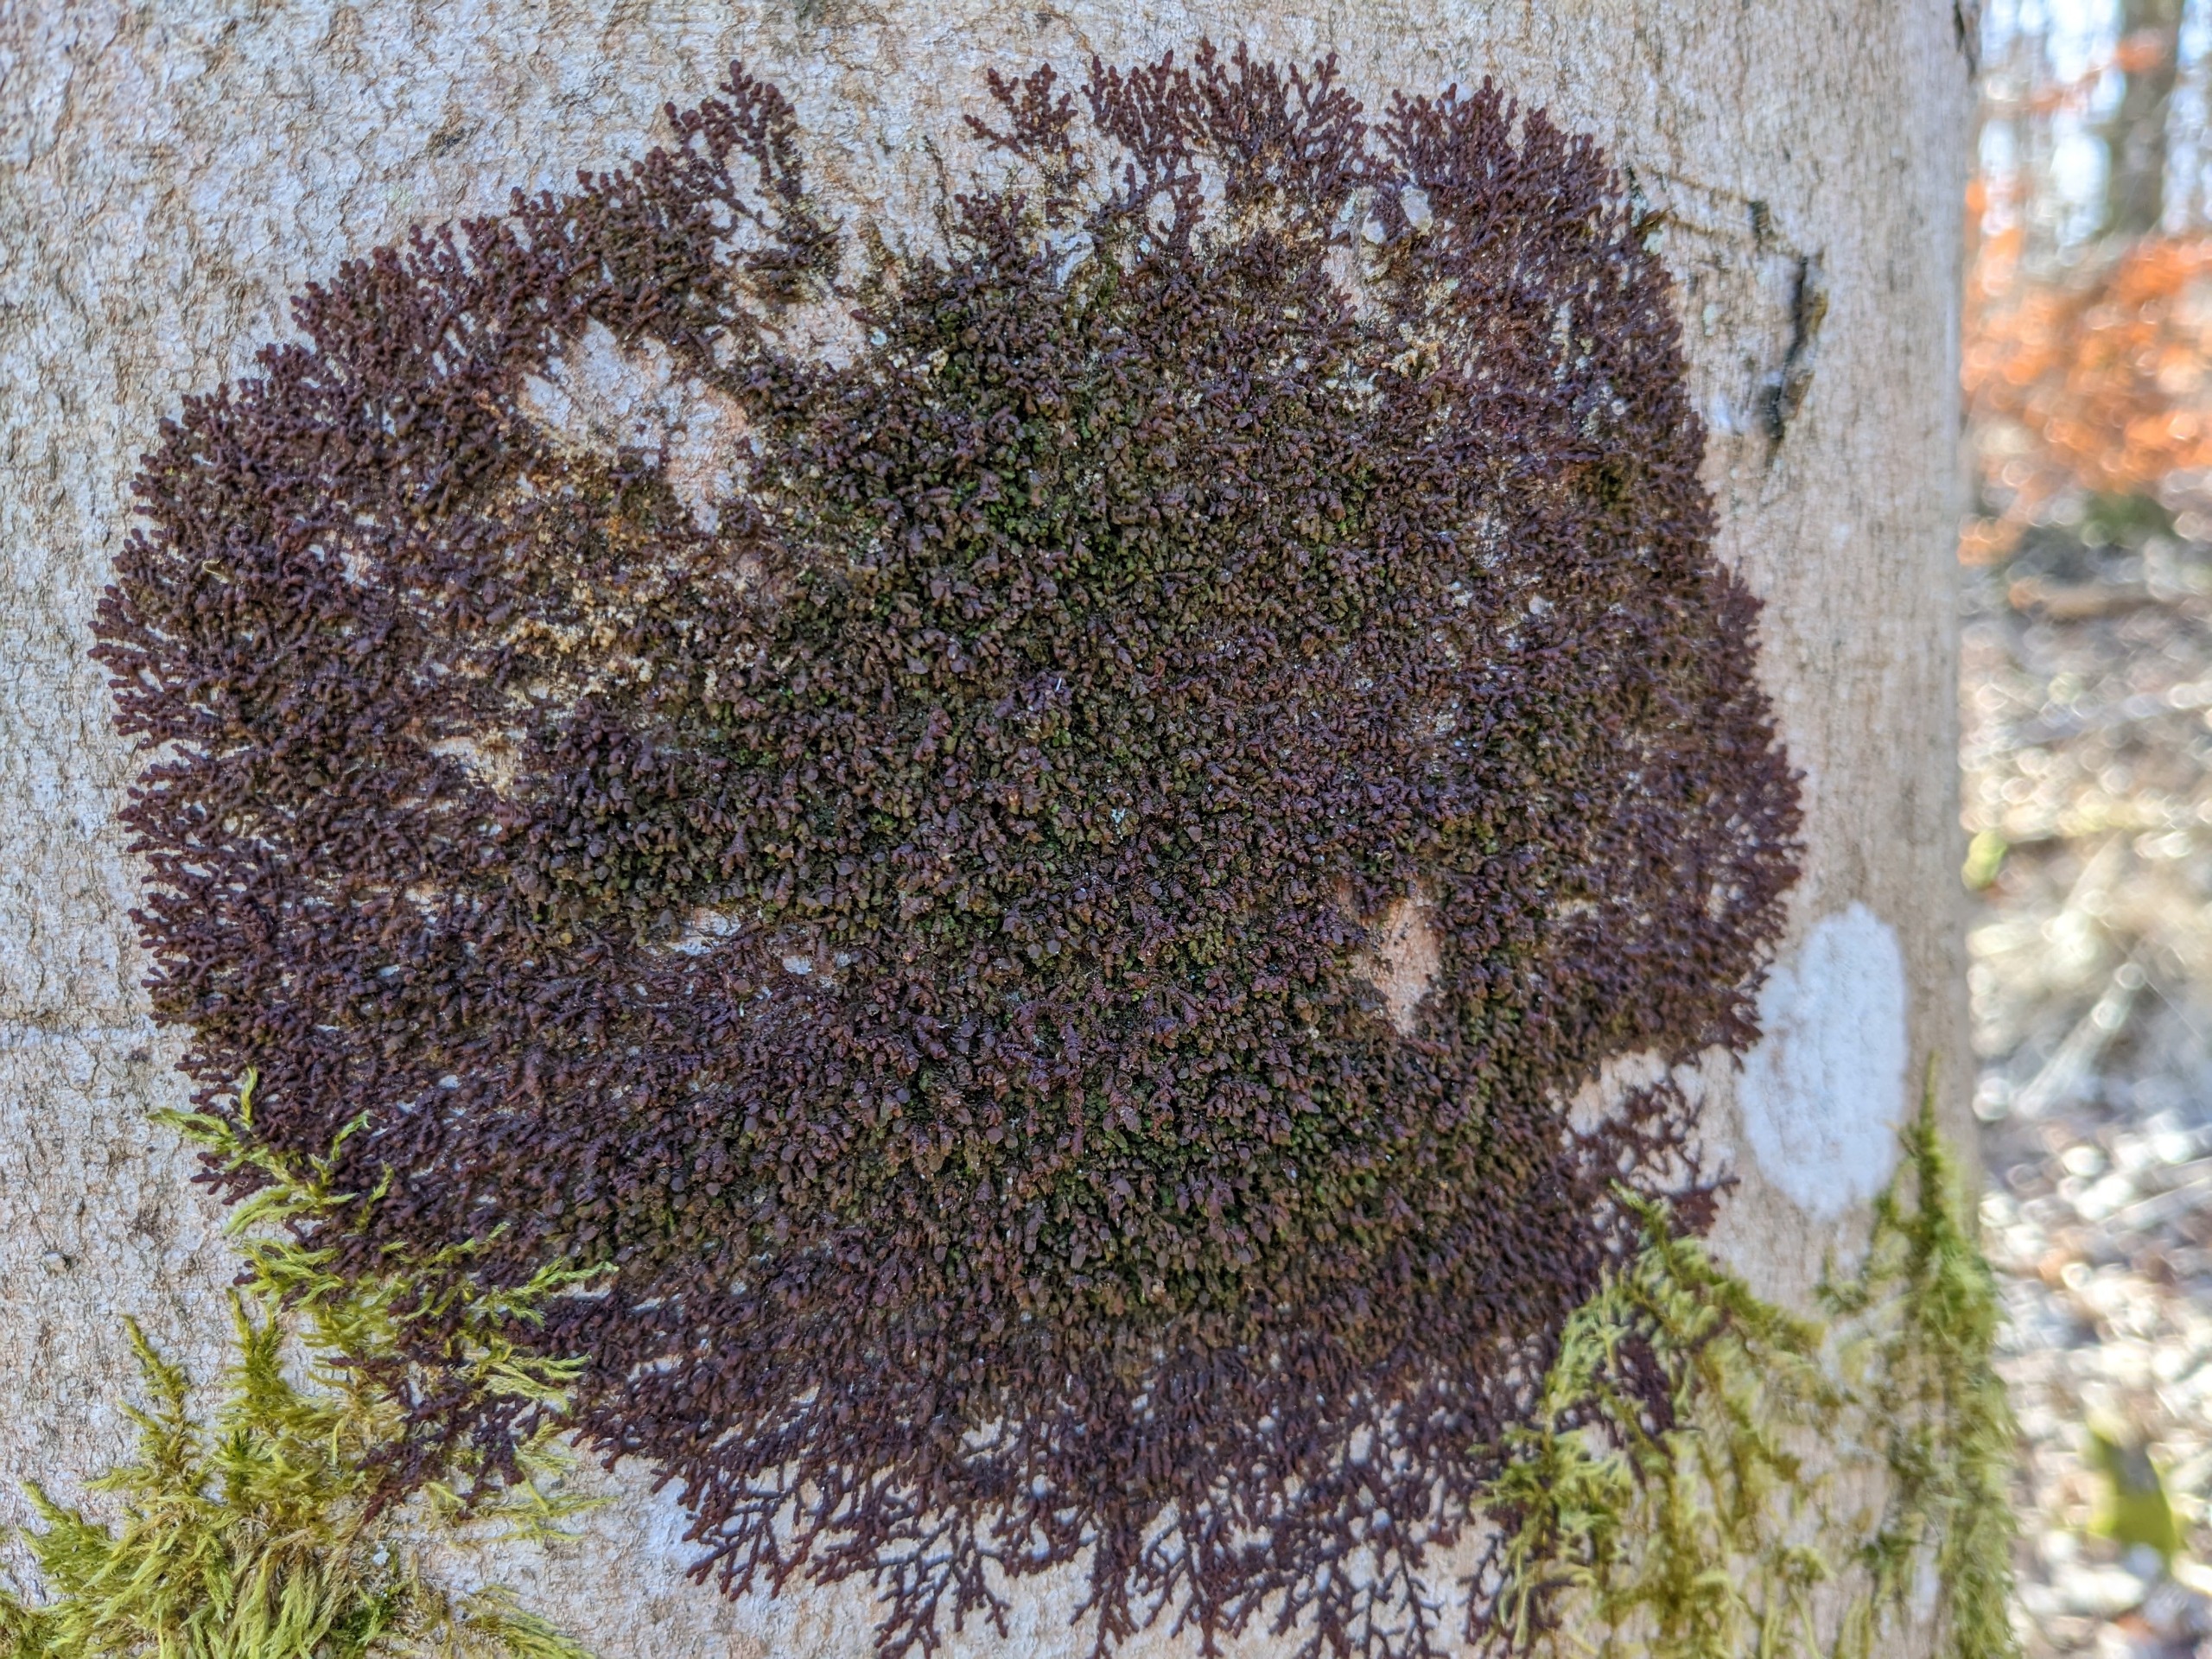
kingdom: Plantae
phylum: Marchantiophyta
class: Jungermanniopsida
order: Porellales
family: Frullaniaceae
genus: Frullania
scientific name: Frullania dilatata
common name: Mat bronzemos
